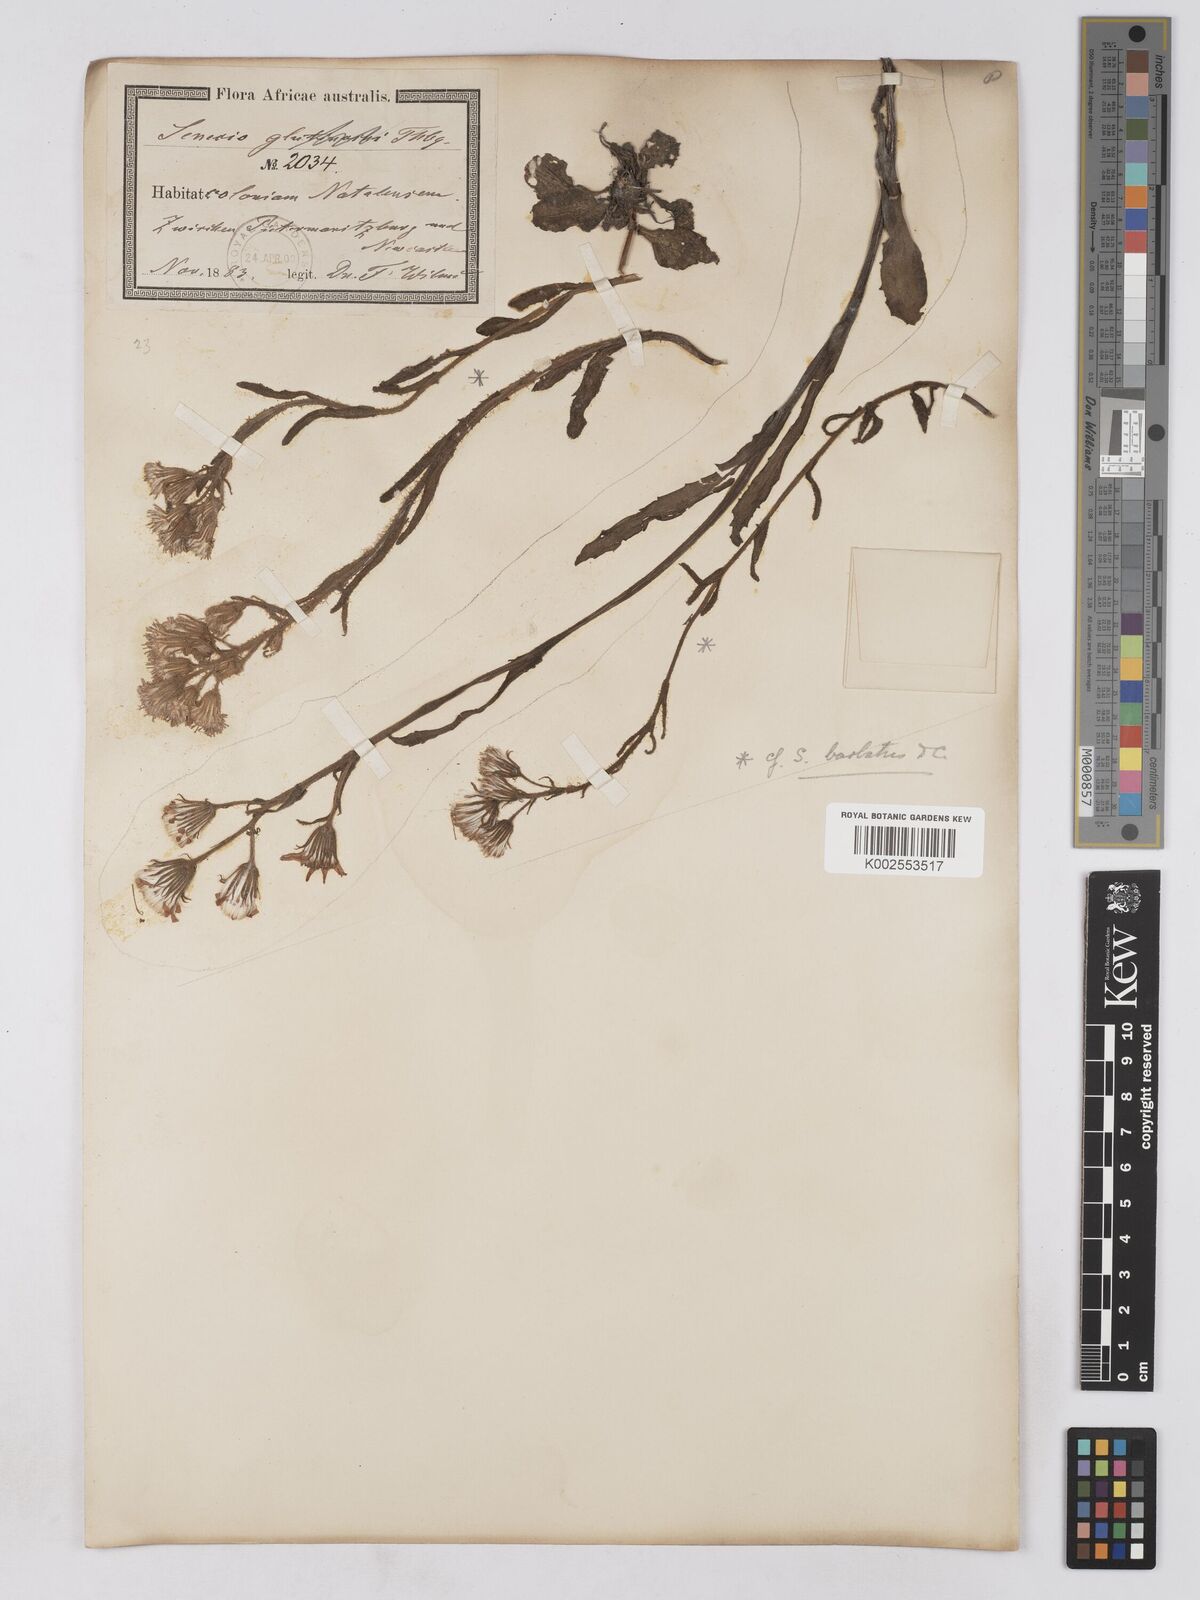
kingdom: Plantae
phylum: Tracheophyta
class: Magnoliopsida
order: Asterales
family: Asteraceae
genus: Senecio
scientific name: Senecio barbatus
